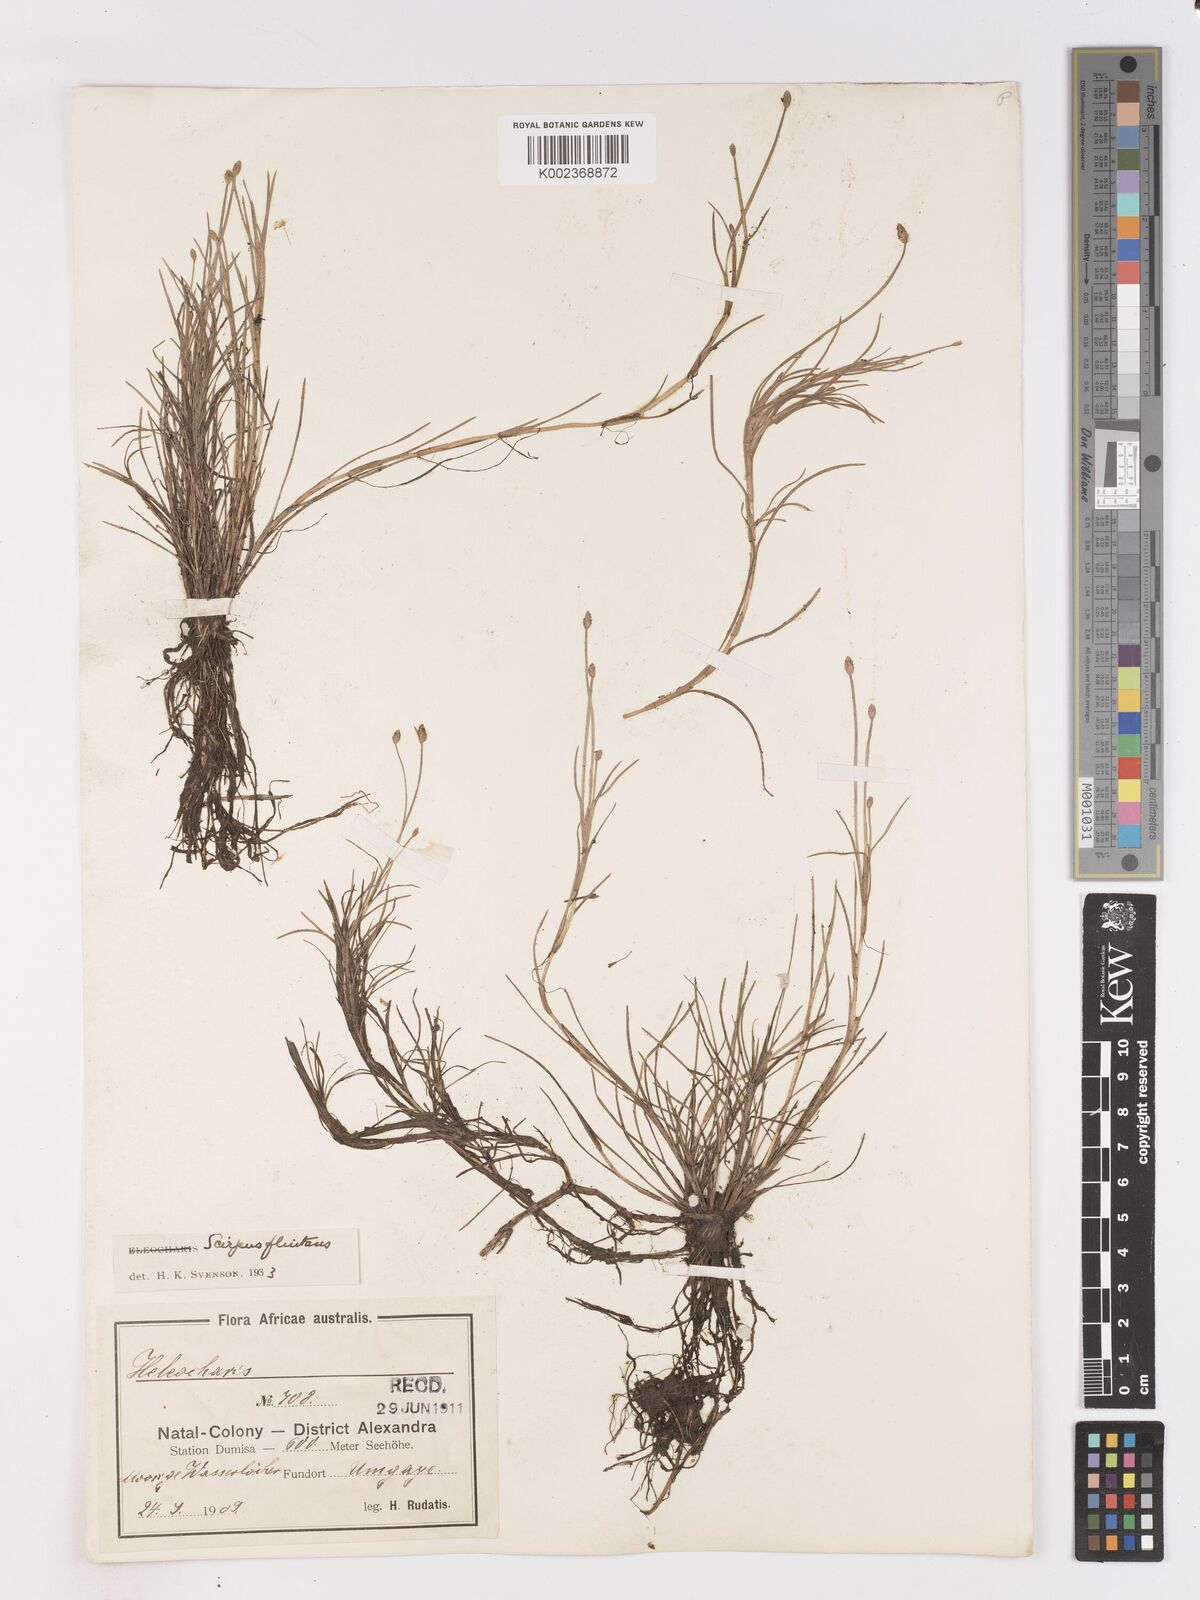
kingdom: Plantae
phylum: Tracheophyta
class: Liliopsida
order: Poales
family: Cyperaceae
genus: Isolepis
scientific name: Isolepis fluitans
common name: Floating club-rush
